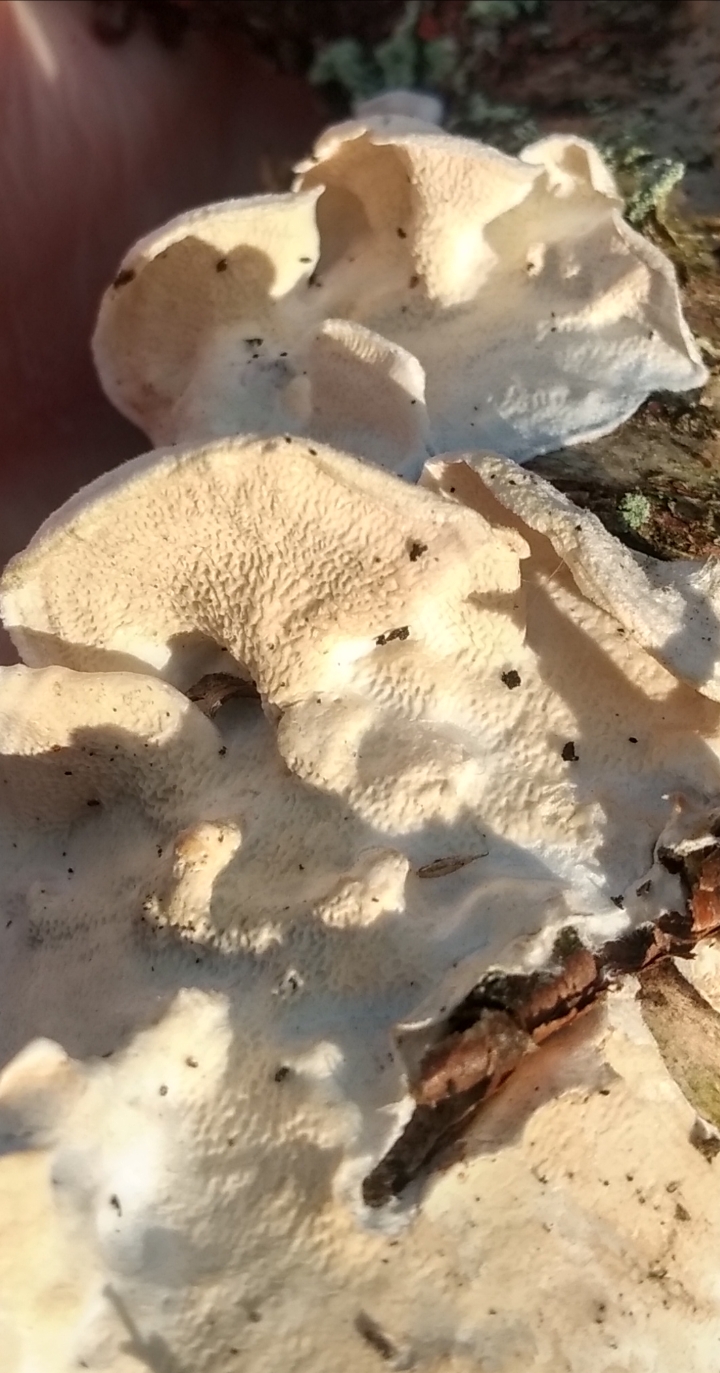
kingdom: Fungi
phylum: Basidiomycota
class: Agaricomycetes
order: Polyporales
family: Irpicaceae
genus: Byssomerulius
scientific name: Byssomerulius corium
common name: læder-åresvamp
